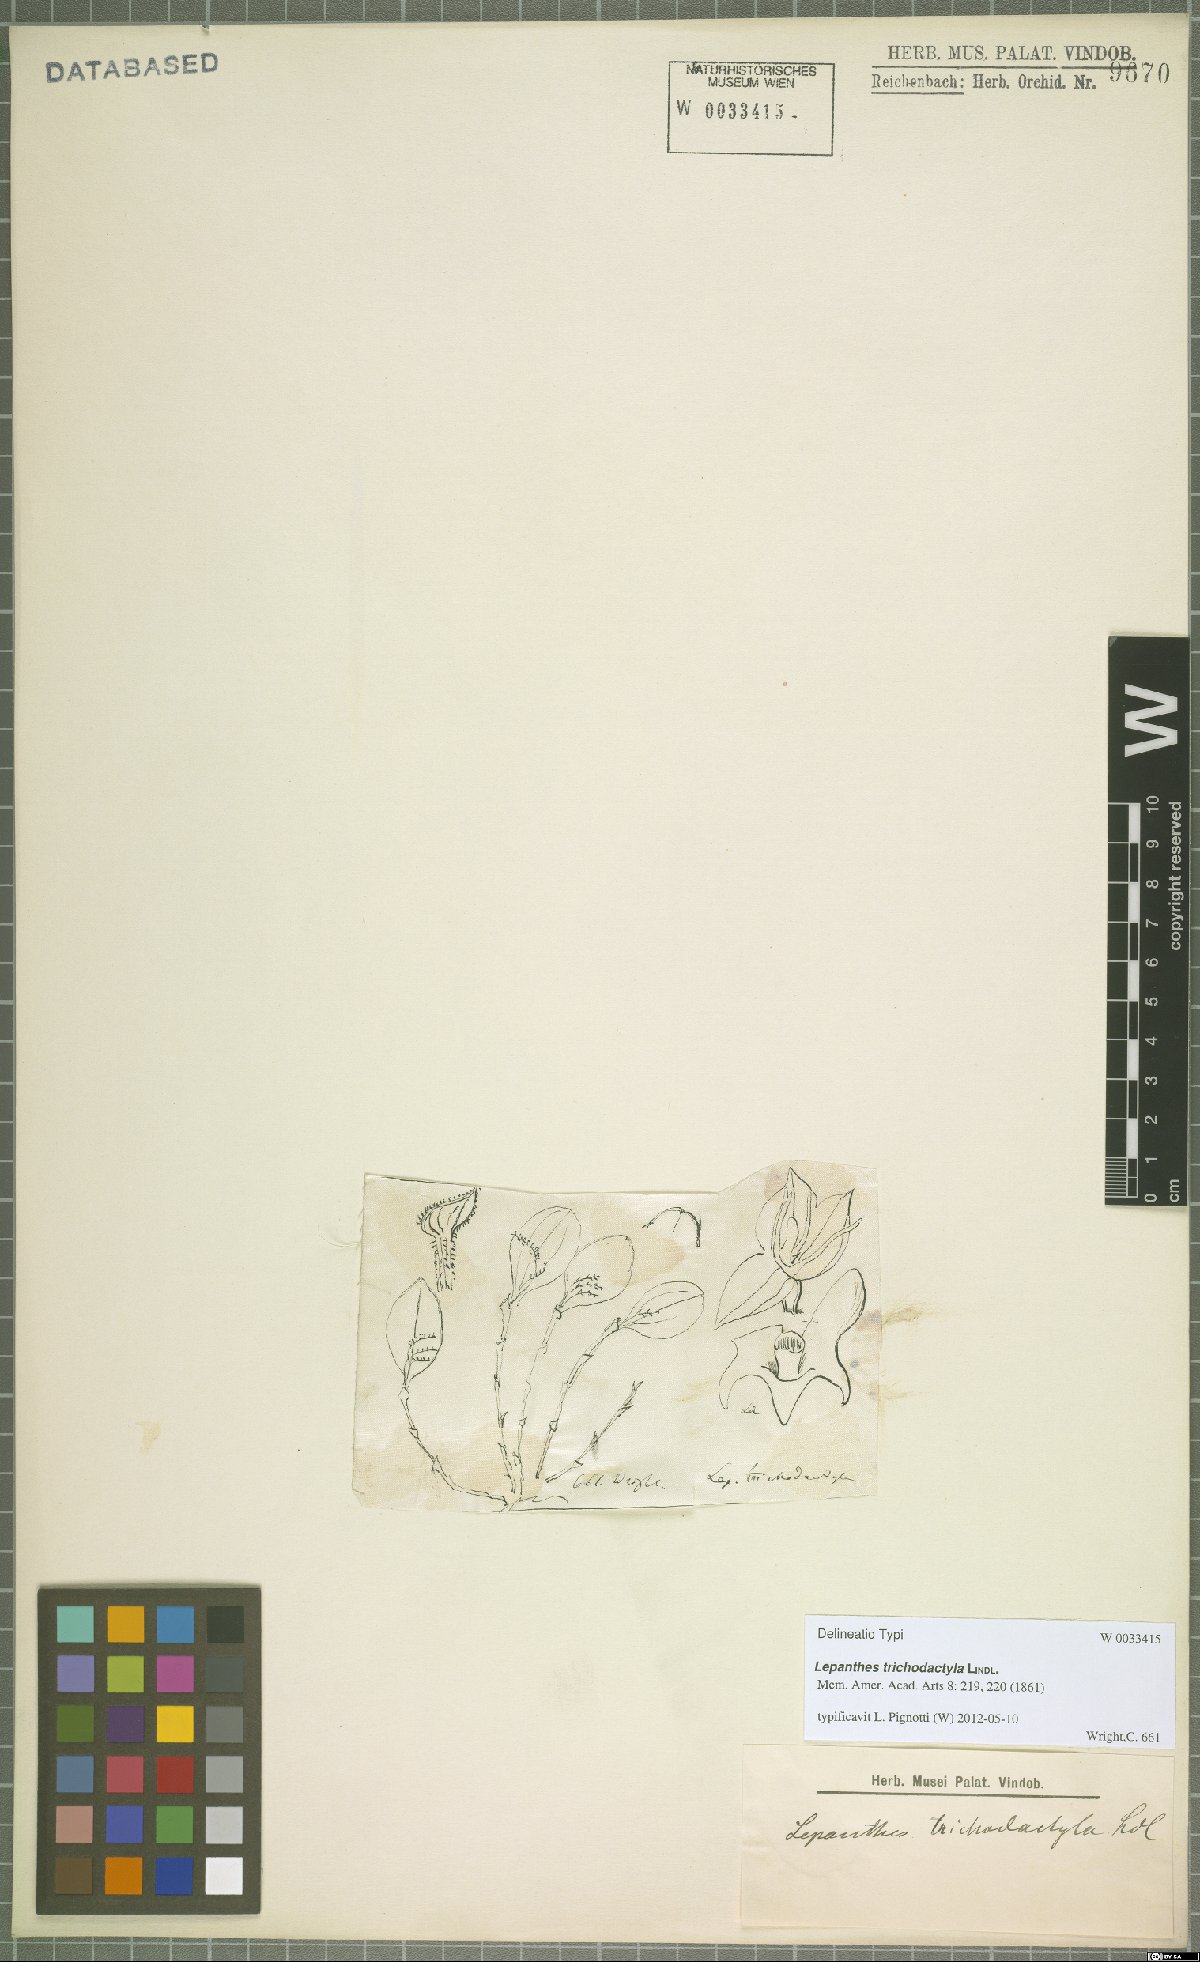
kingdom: Plantae
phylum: Tracheophyta
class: Liliopsida
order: Asparagales
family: Orchidaceae
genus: Lepanthes
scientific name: Lepanthes trichodactyla
